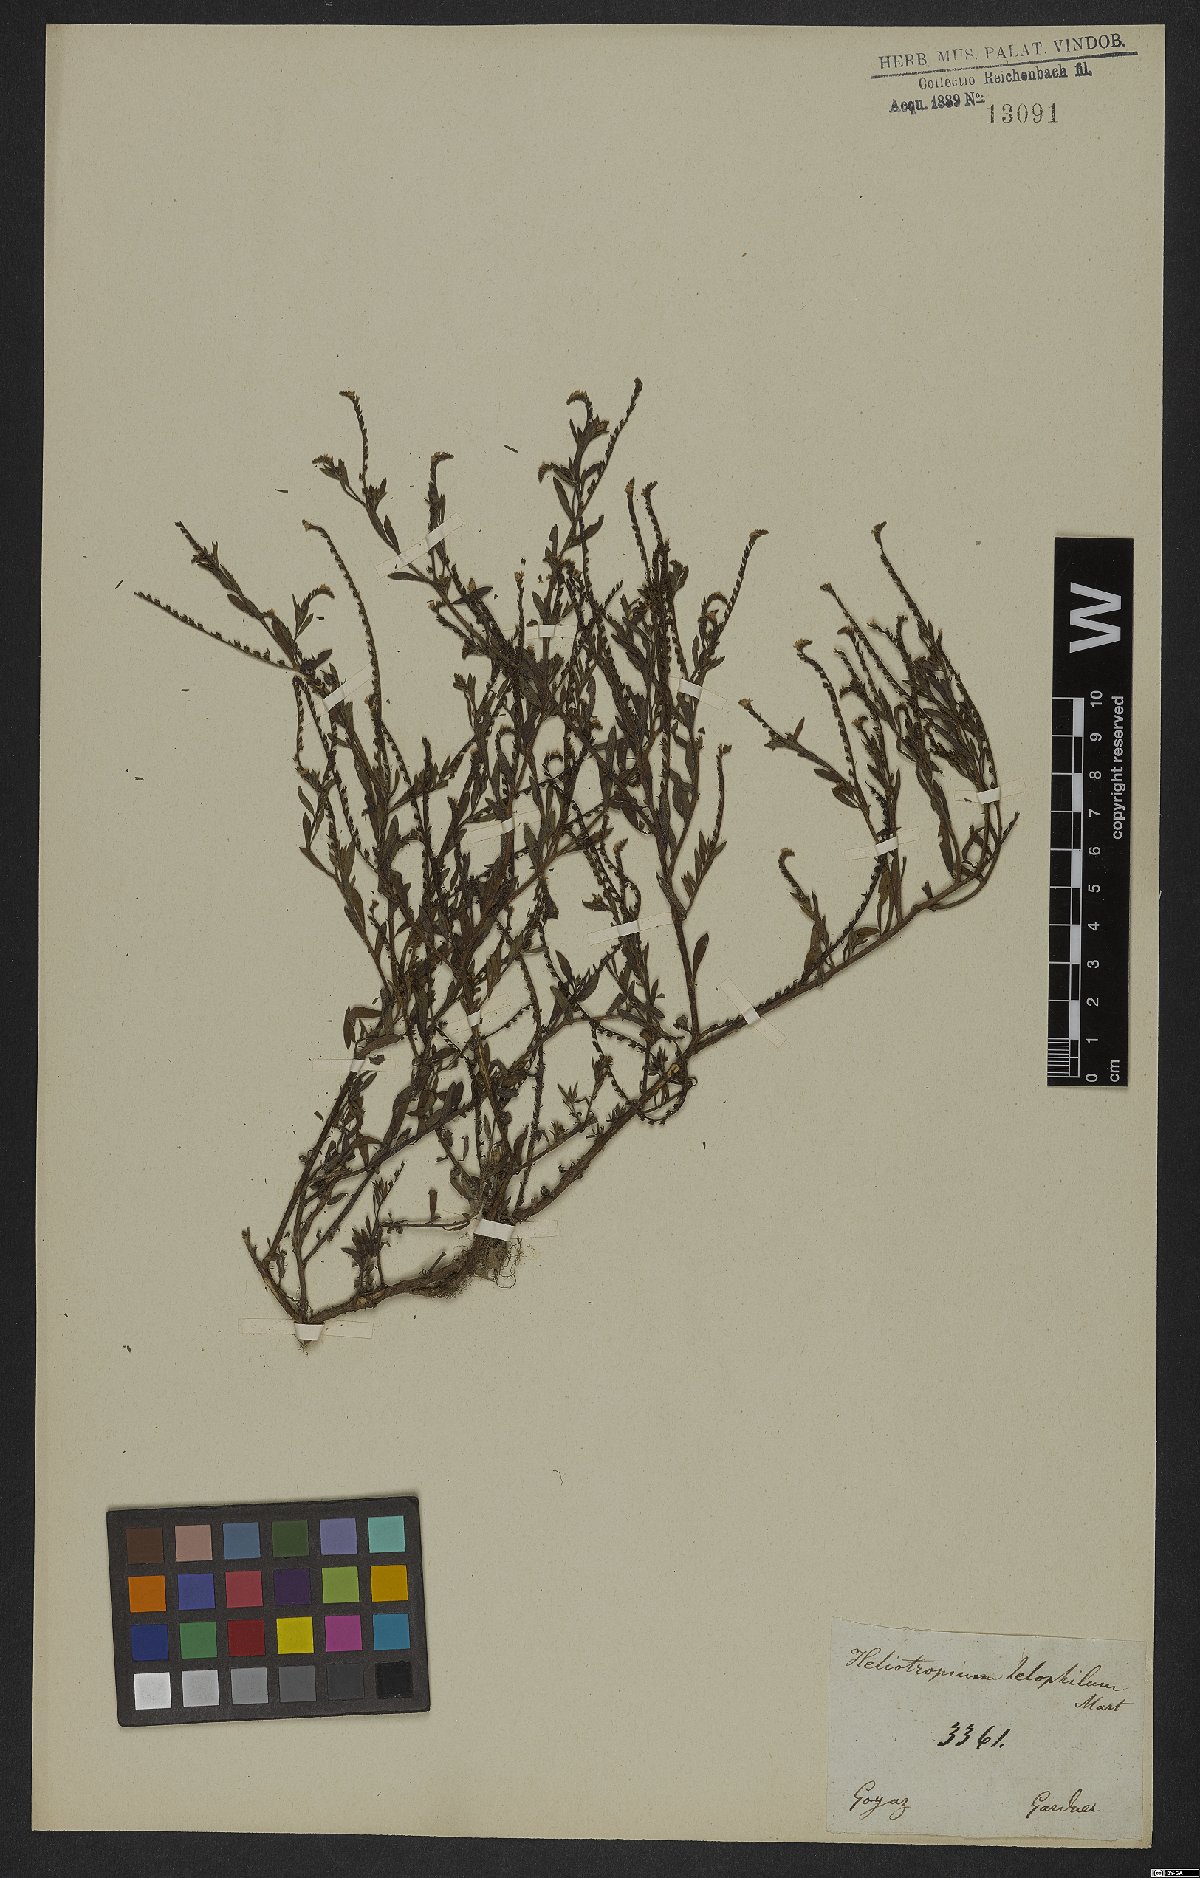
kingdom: Plantae
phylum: Tracheophyta
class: Magnoliopsida
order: Boraginales
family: Heliotropiaceae
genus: Euploca
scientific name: Euploca filiformis
